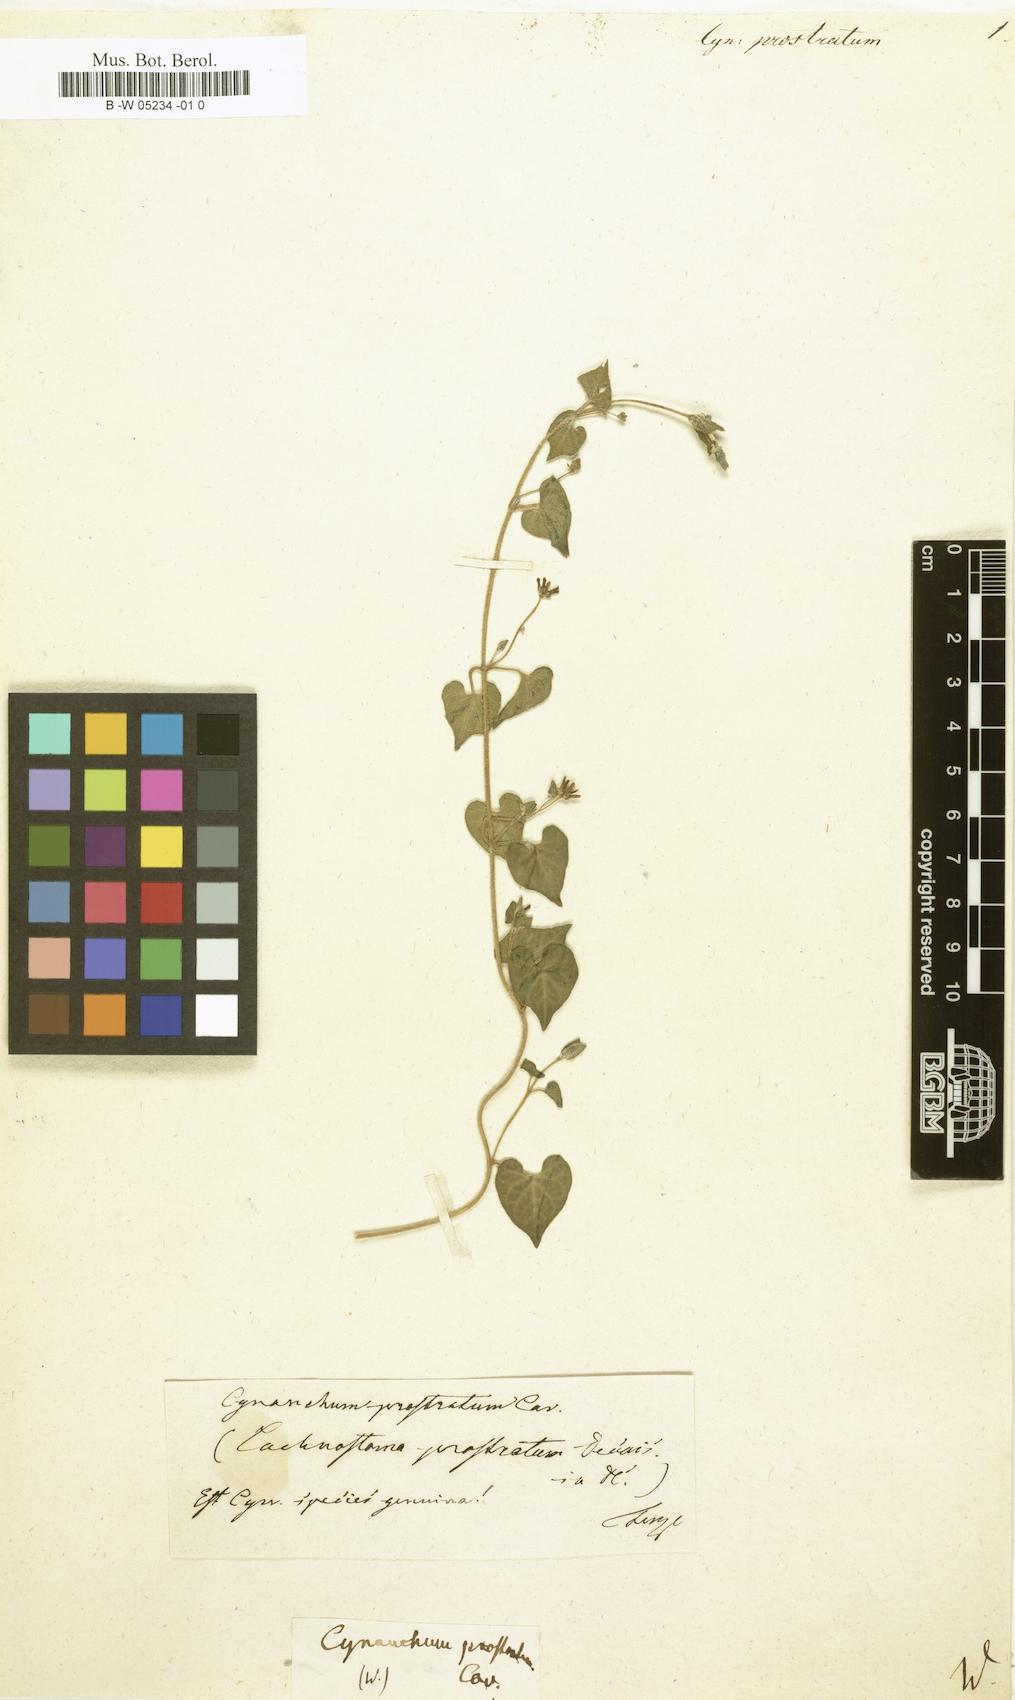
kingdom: Plantae
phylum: Tracheophyta
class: Magnoliopsida
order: Gentianales
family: Apocynaceae
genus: Chthamalia
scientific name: Chthamalia prostrata
